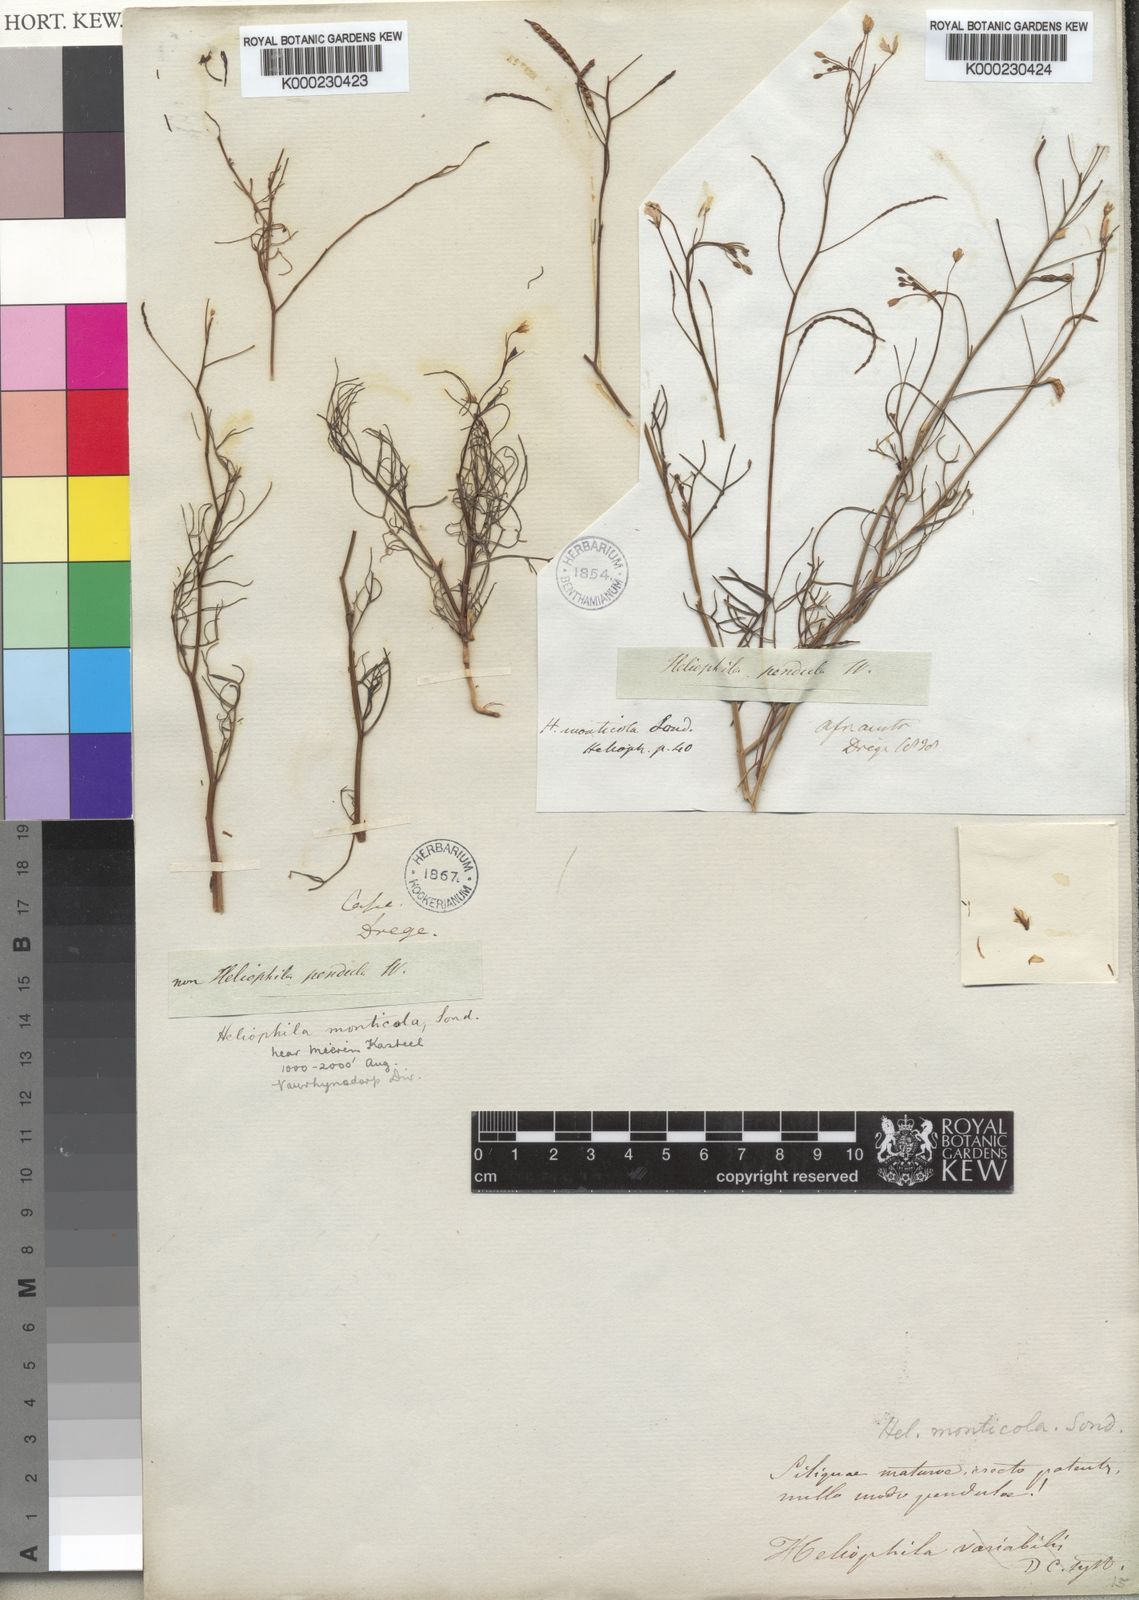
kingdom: Plantae
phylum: Tracheophyta
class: Magnoliopsida
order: Brassicales
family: Brassicaceae
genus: Heliophila
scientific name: Heliophila variabilis
